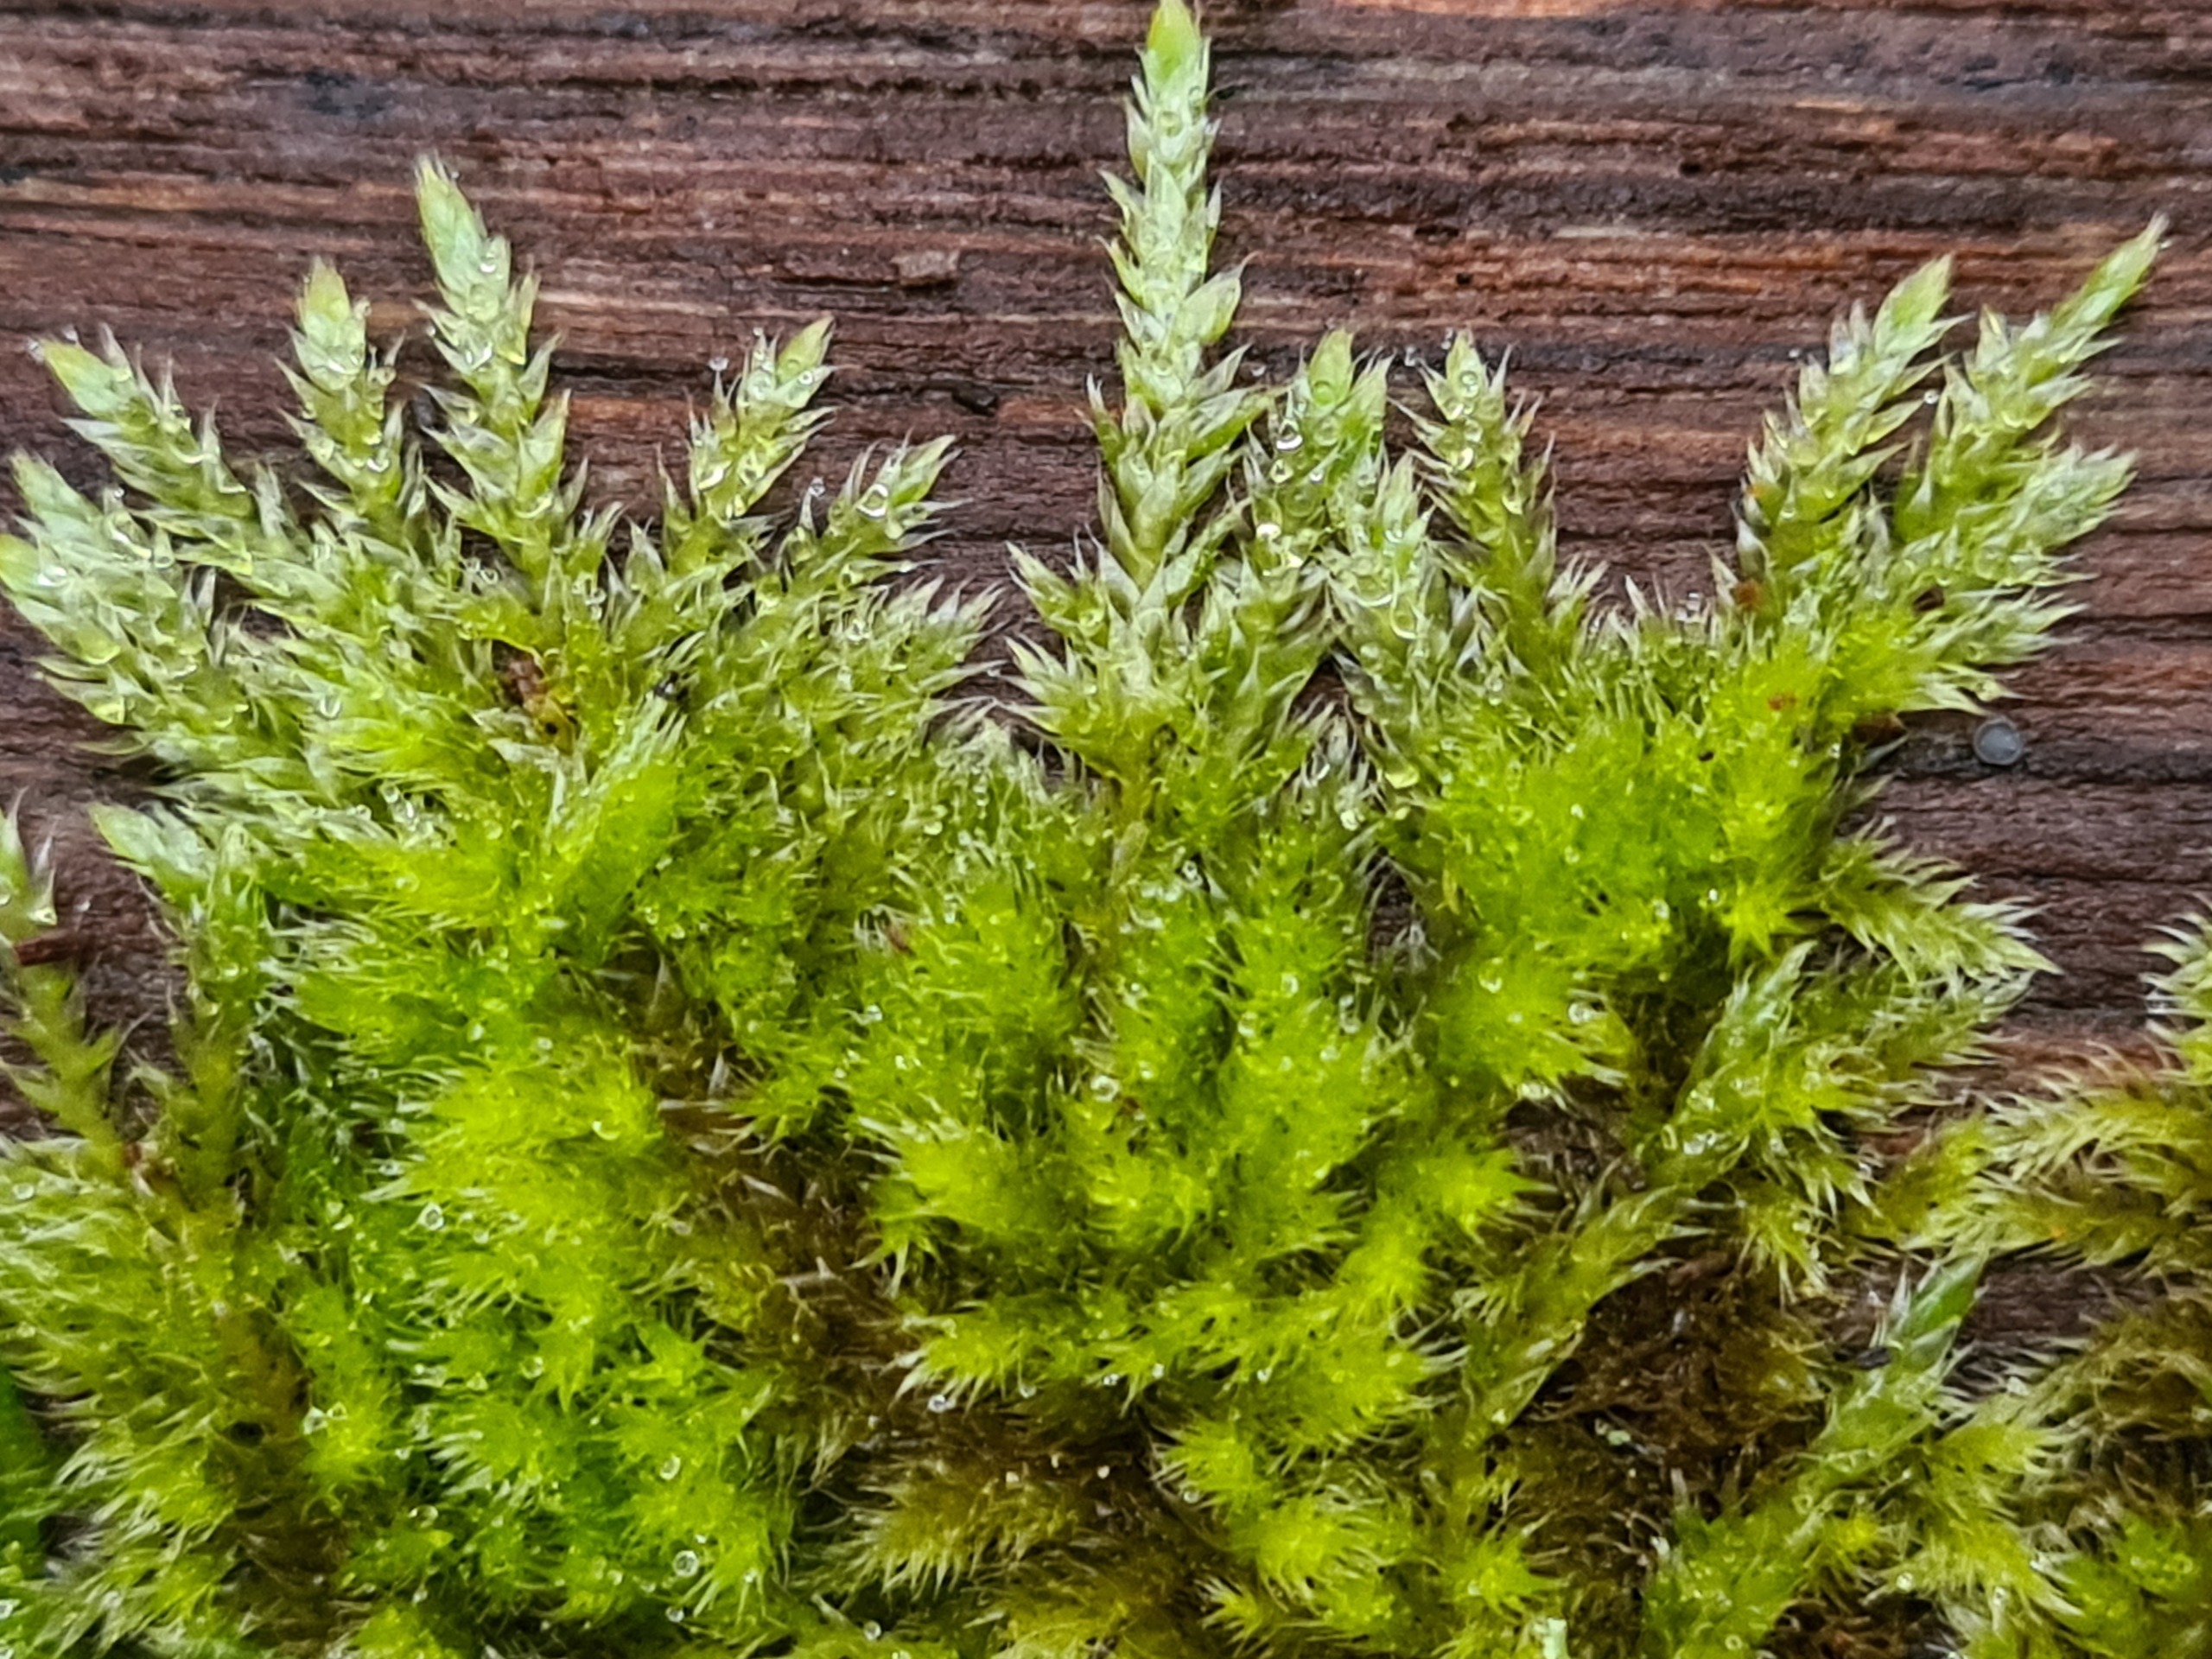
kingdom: Plantae
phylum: Bryophyta
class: Bryopsida
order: Hypnales
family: Hypnaceae
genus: Hypnum
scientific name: Hypnum cupressiforme
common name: Almindelig cypresmos
